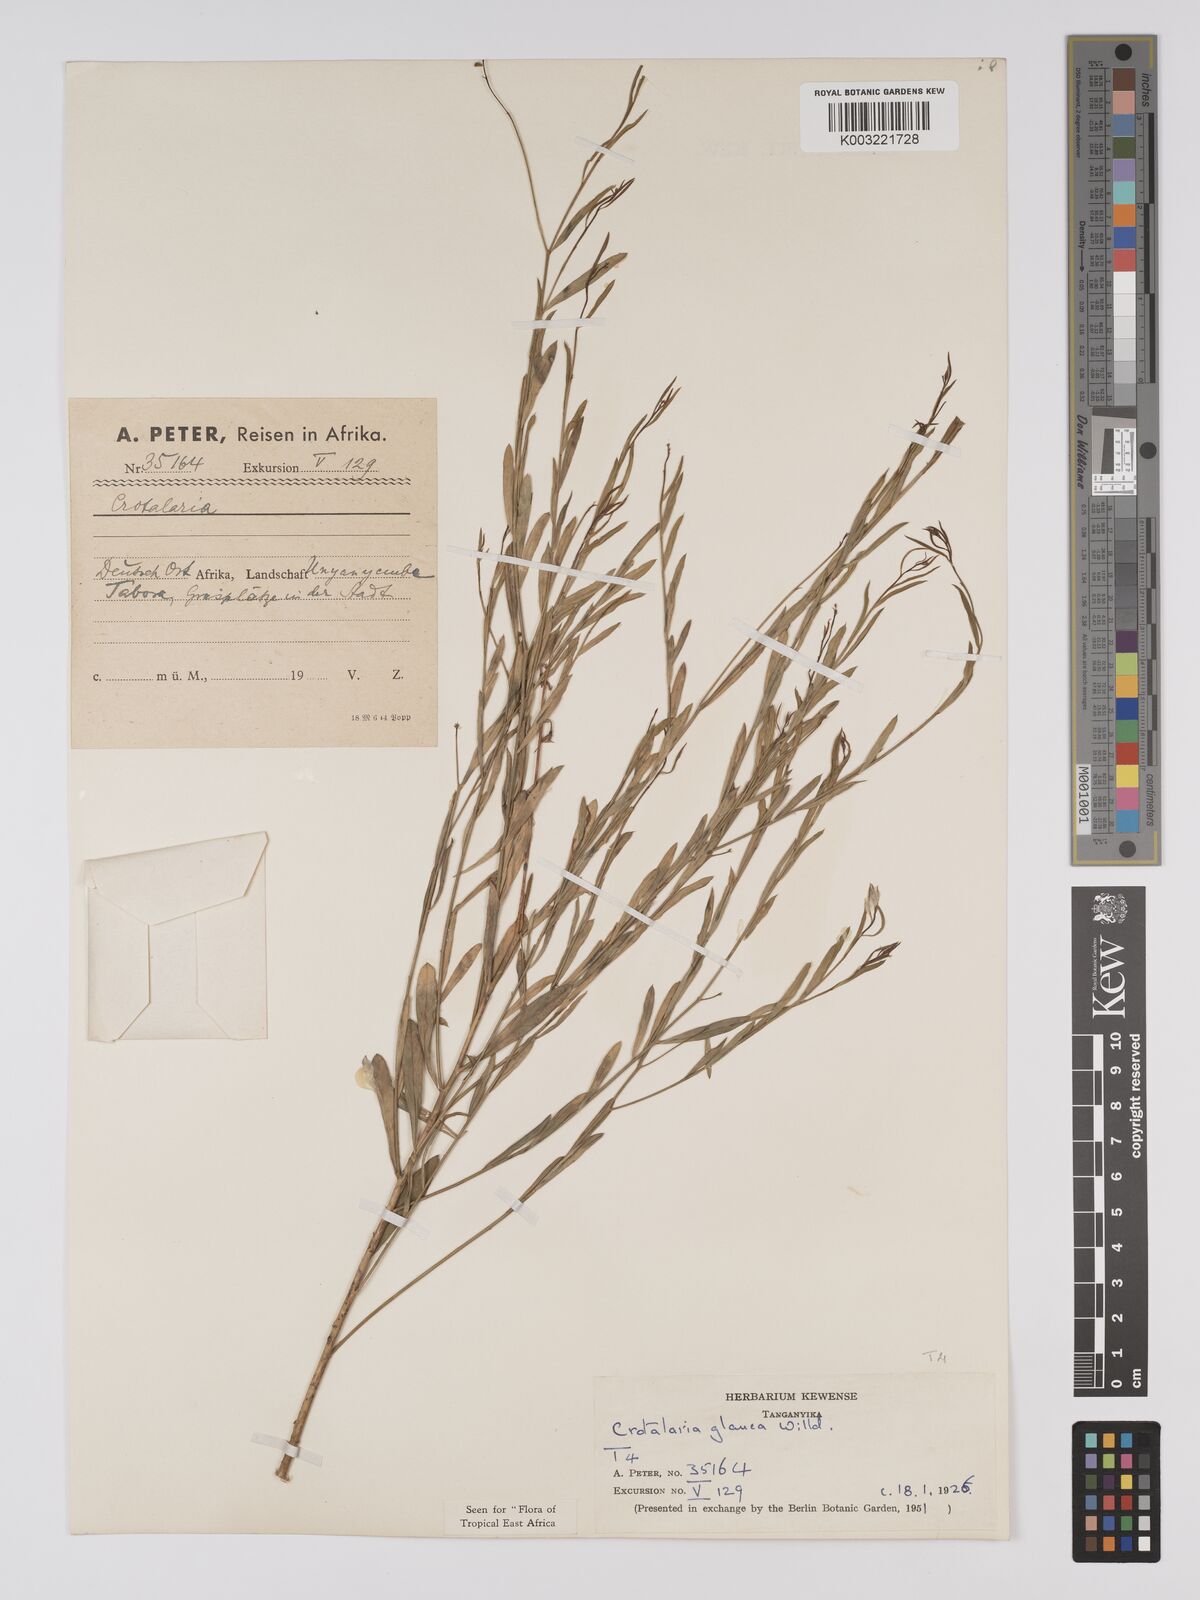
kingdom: Plantae
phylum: Tracheophyta
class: Magnoliopsida
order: Fabales
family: Fabaceae
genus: Crotalaria
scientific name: Crotalaria glauca
